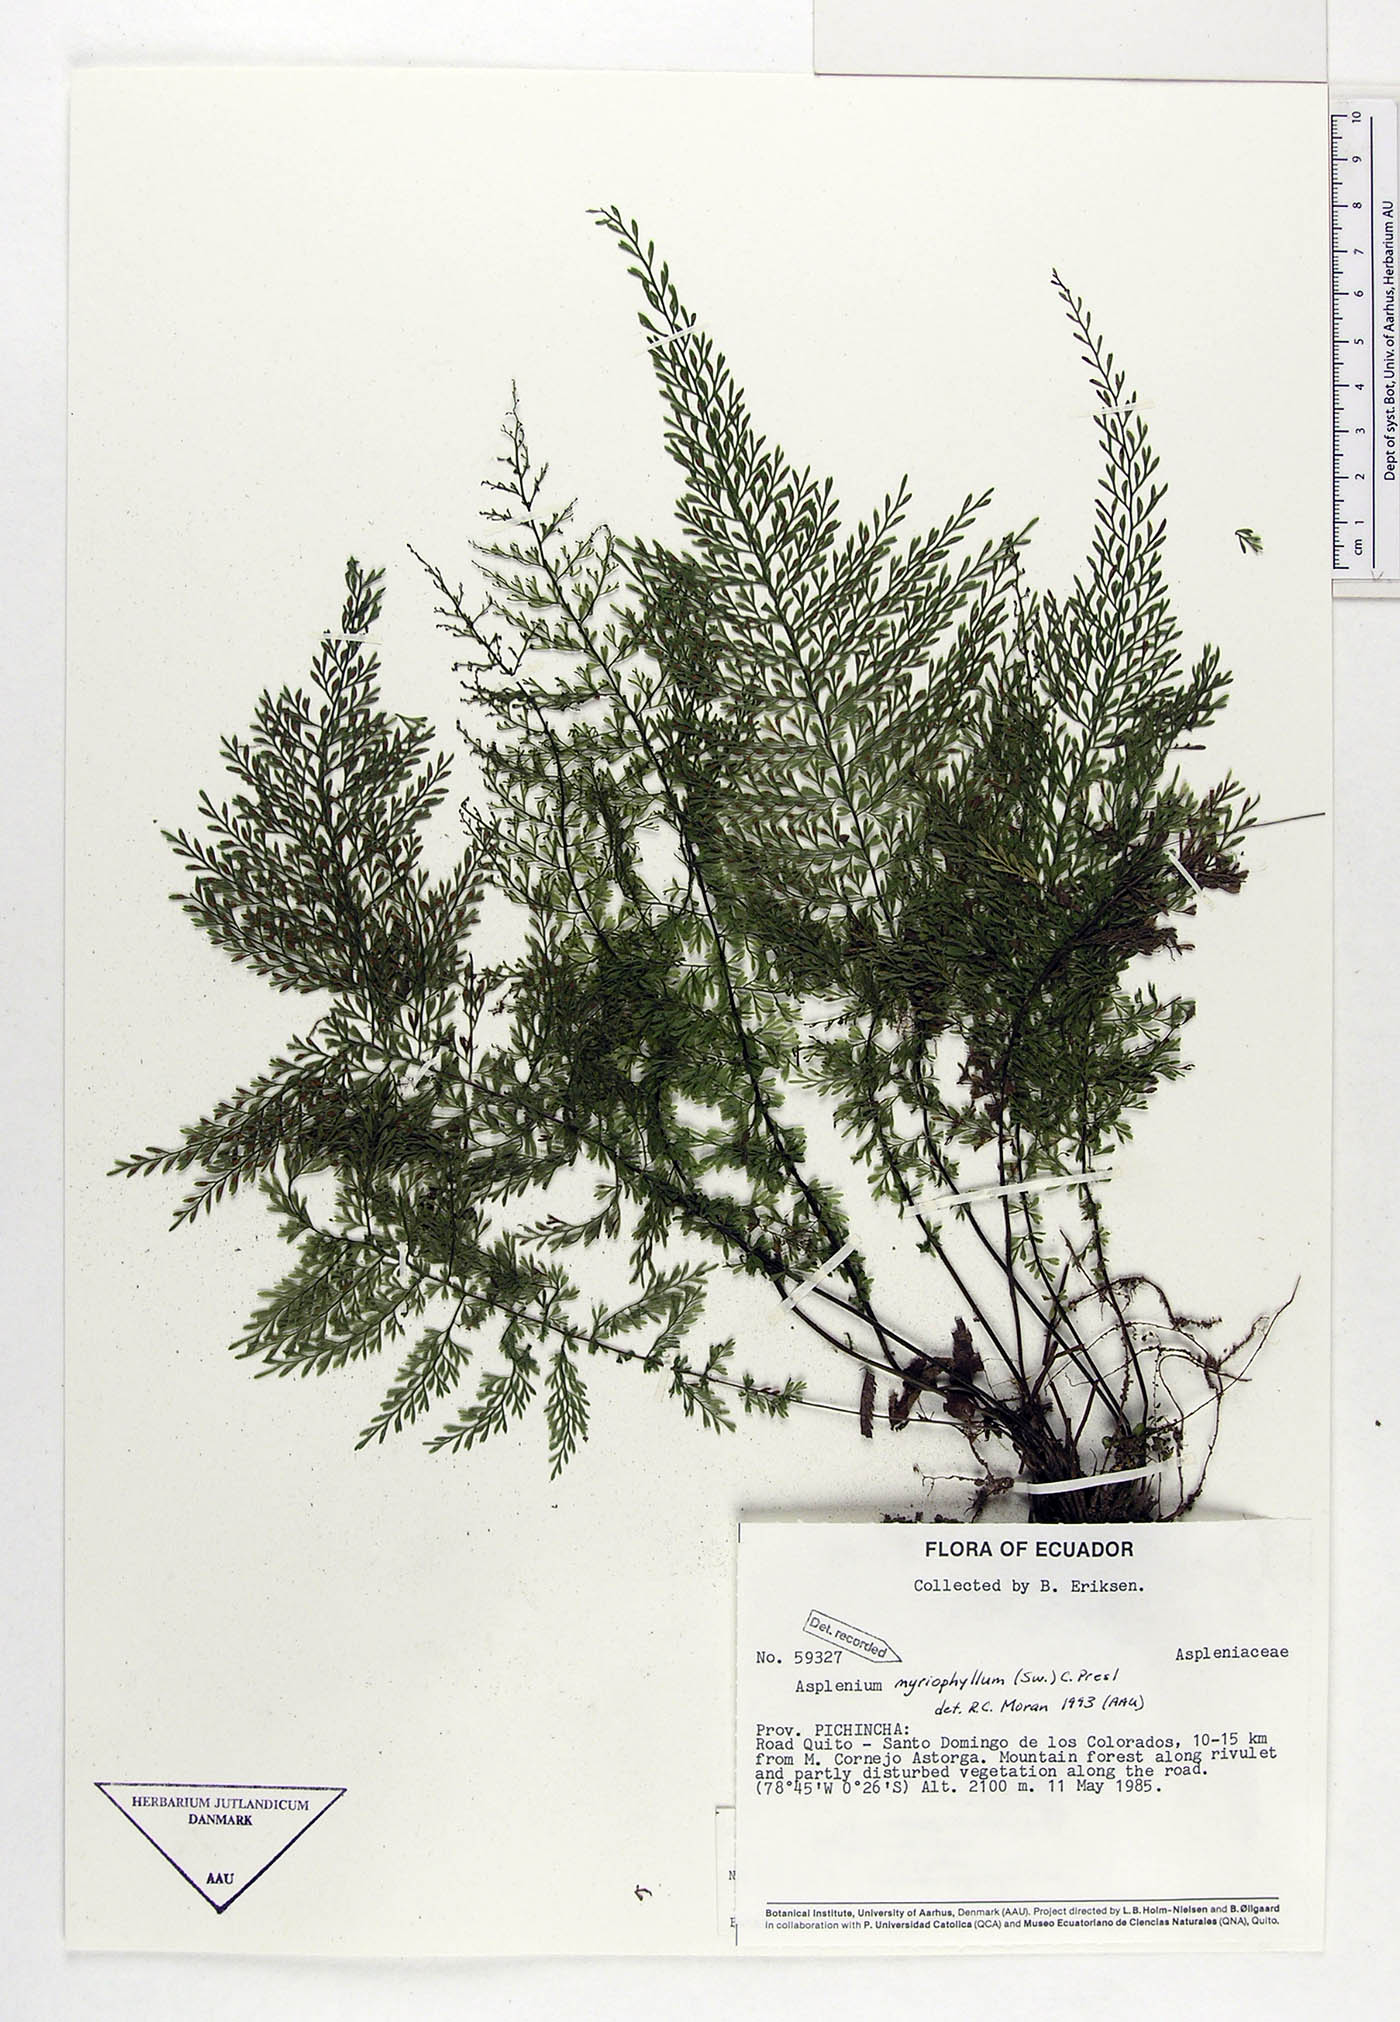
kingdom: Plantae
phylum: Tracheophyta
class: Polypodiopsida
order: Polypodiales
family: Aspleniaceae
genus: Asplenium
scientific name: Asplenium myriophyllum
